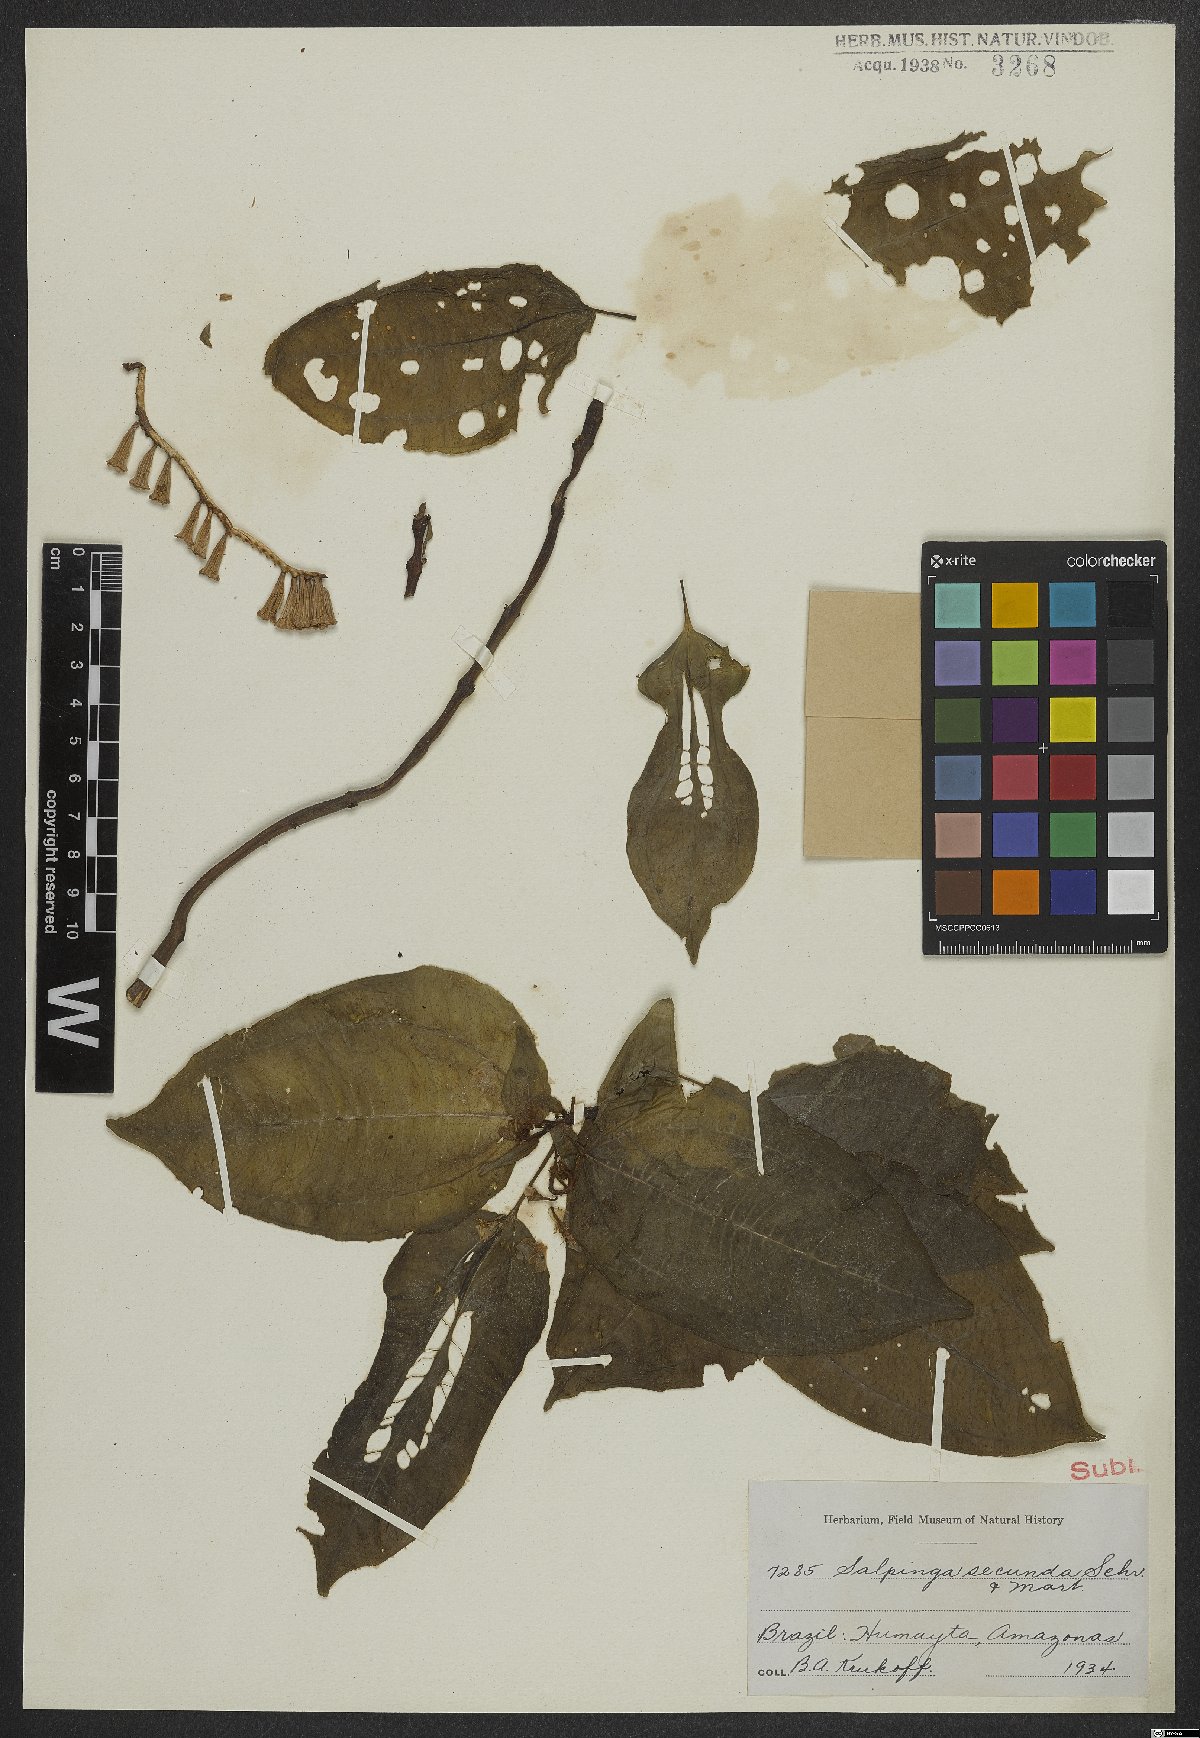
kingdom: Plantae
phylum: Tracheophyta
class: Magnoliopsida
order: Myrtales
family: Melastomataceae
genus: Salpinga
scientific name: Salpinga secunda
